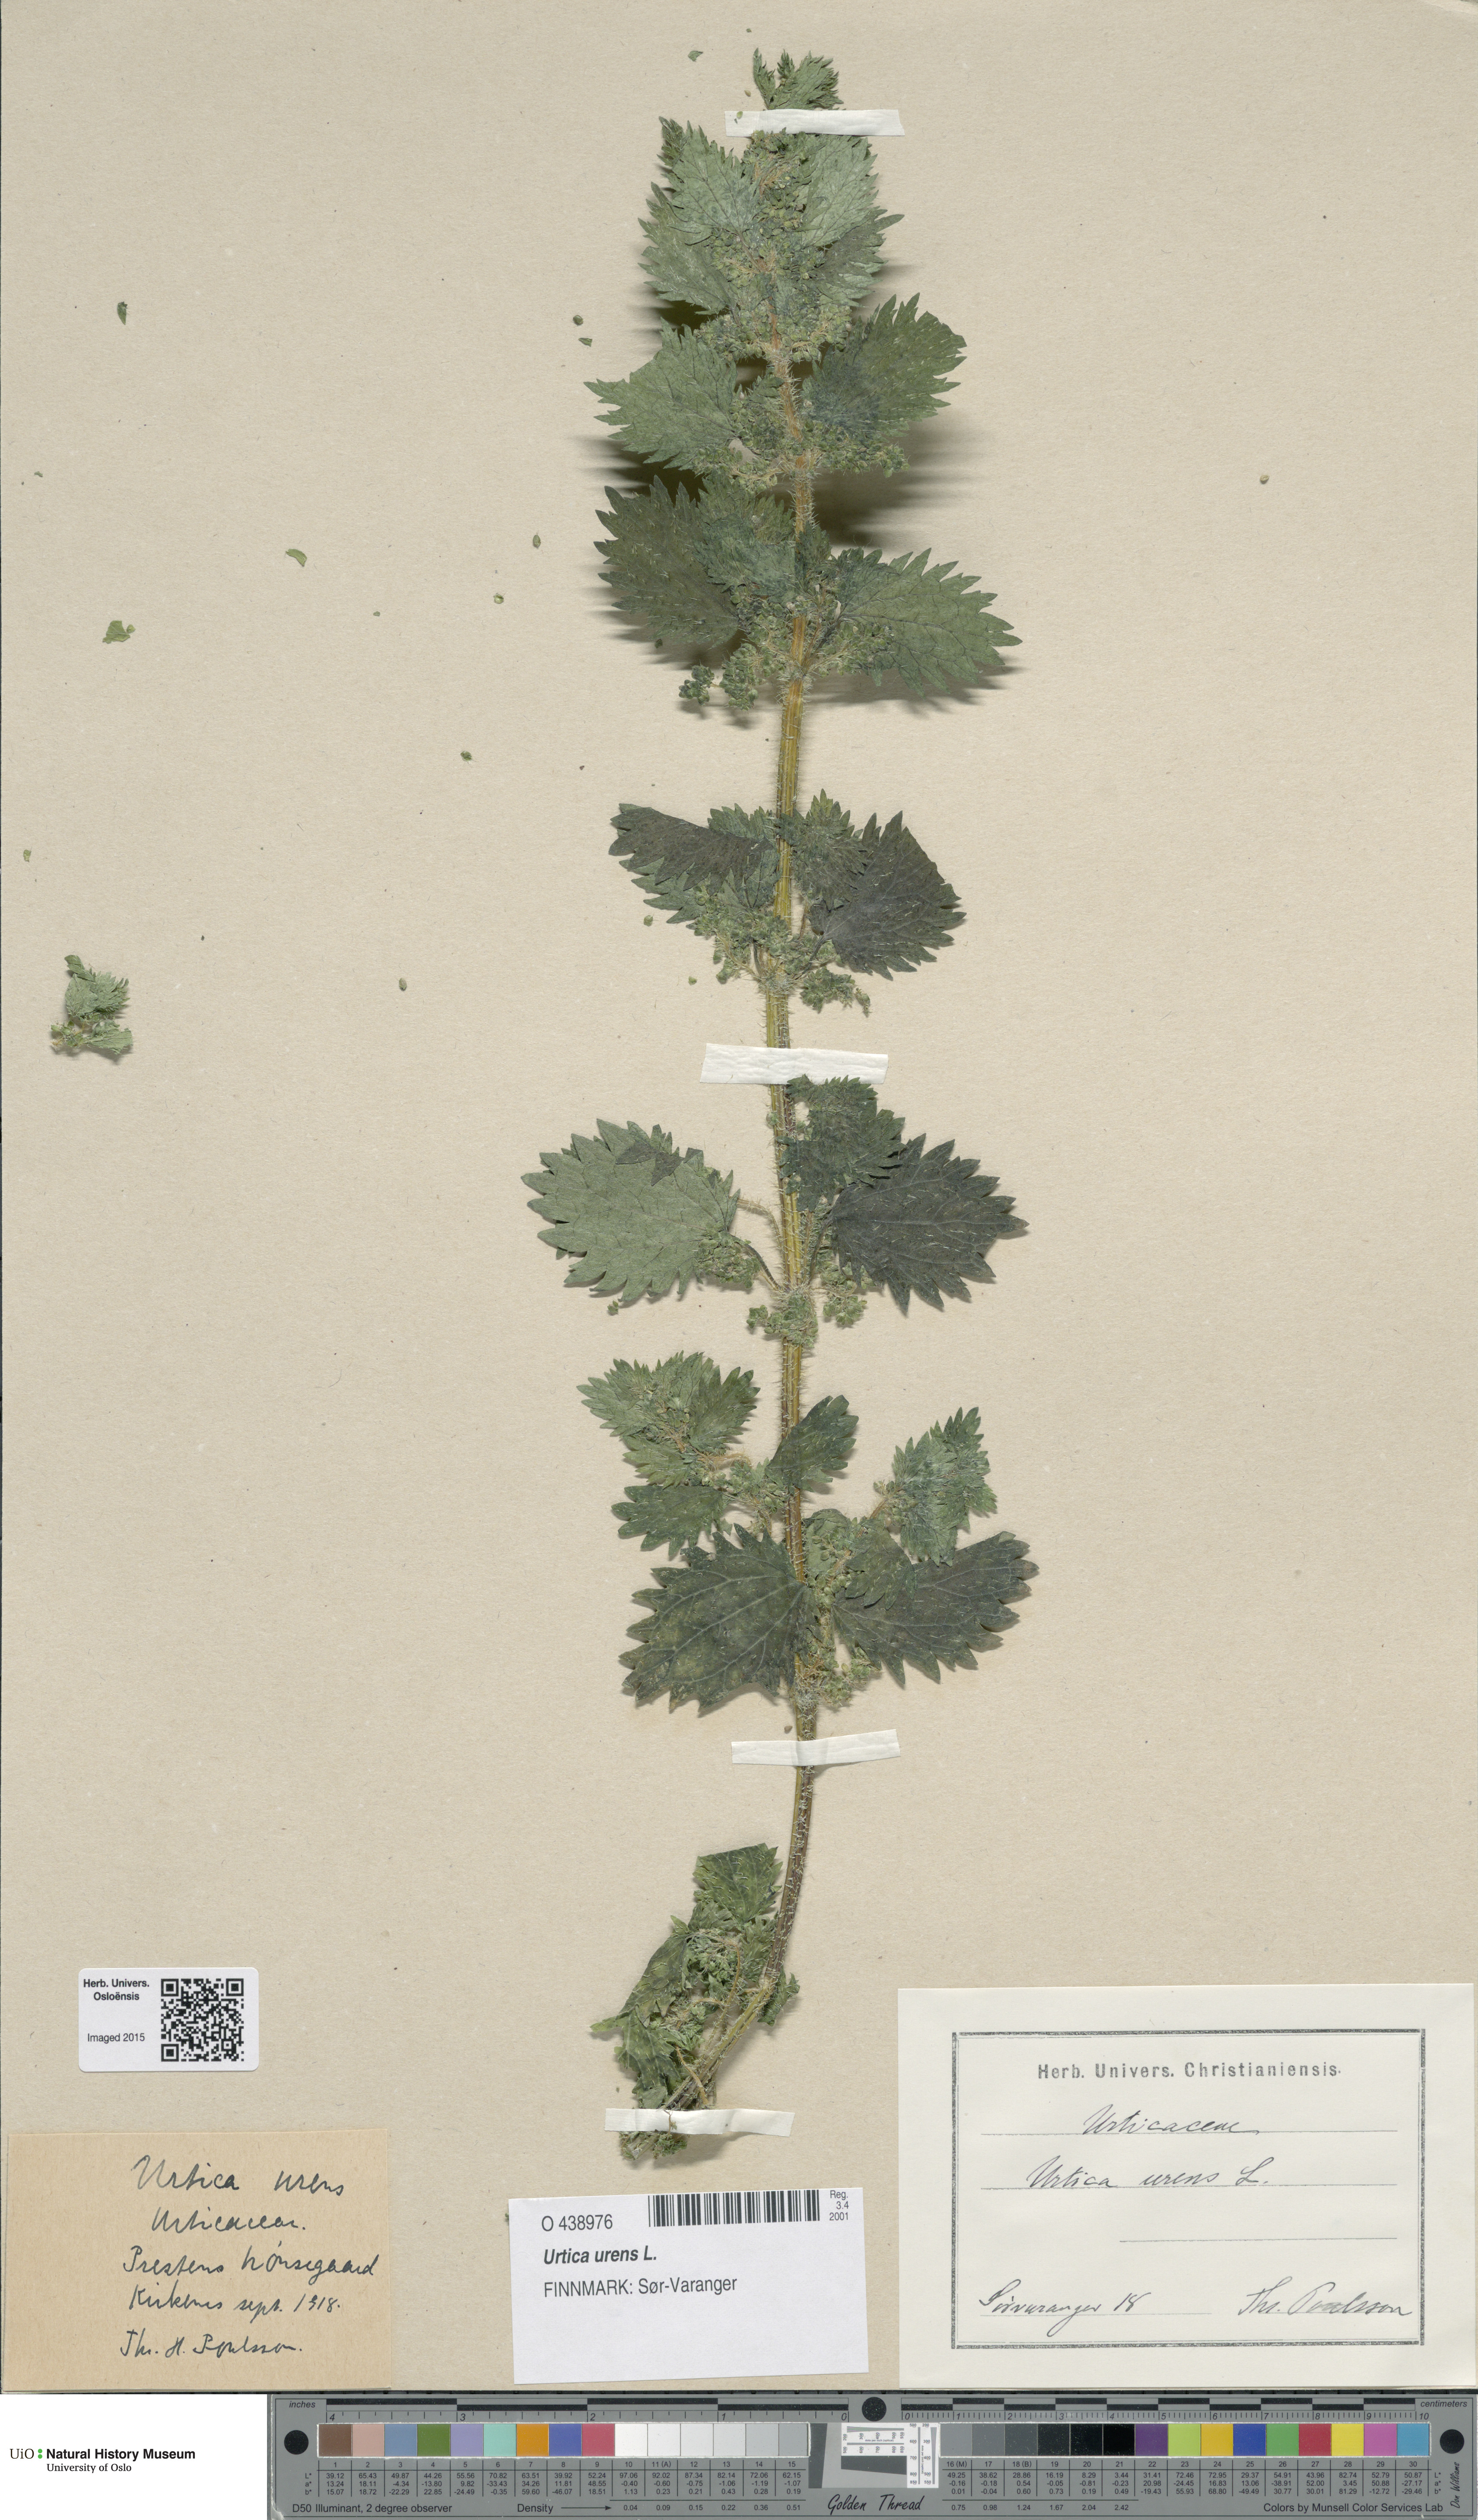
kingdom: Plantae
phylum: Tracheophyta
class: Magnoliopsida
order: Rosales
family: Urticaceae
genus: Urtica
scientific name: Urtica urens
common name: Dwarf nettle
